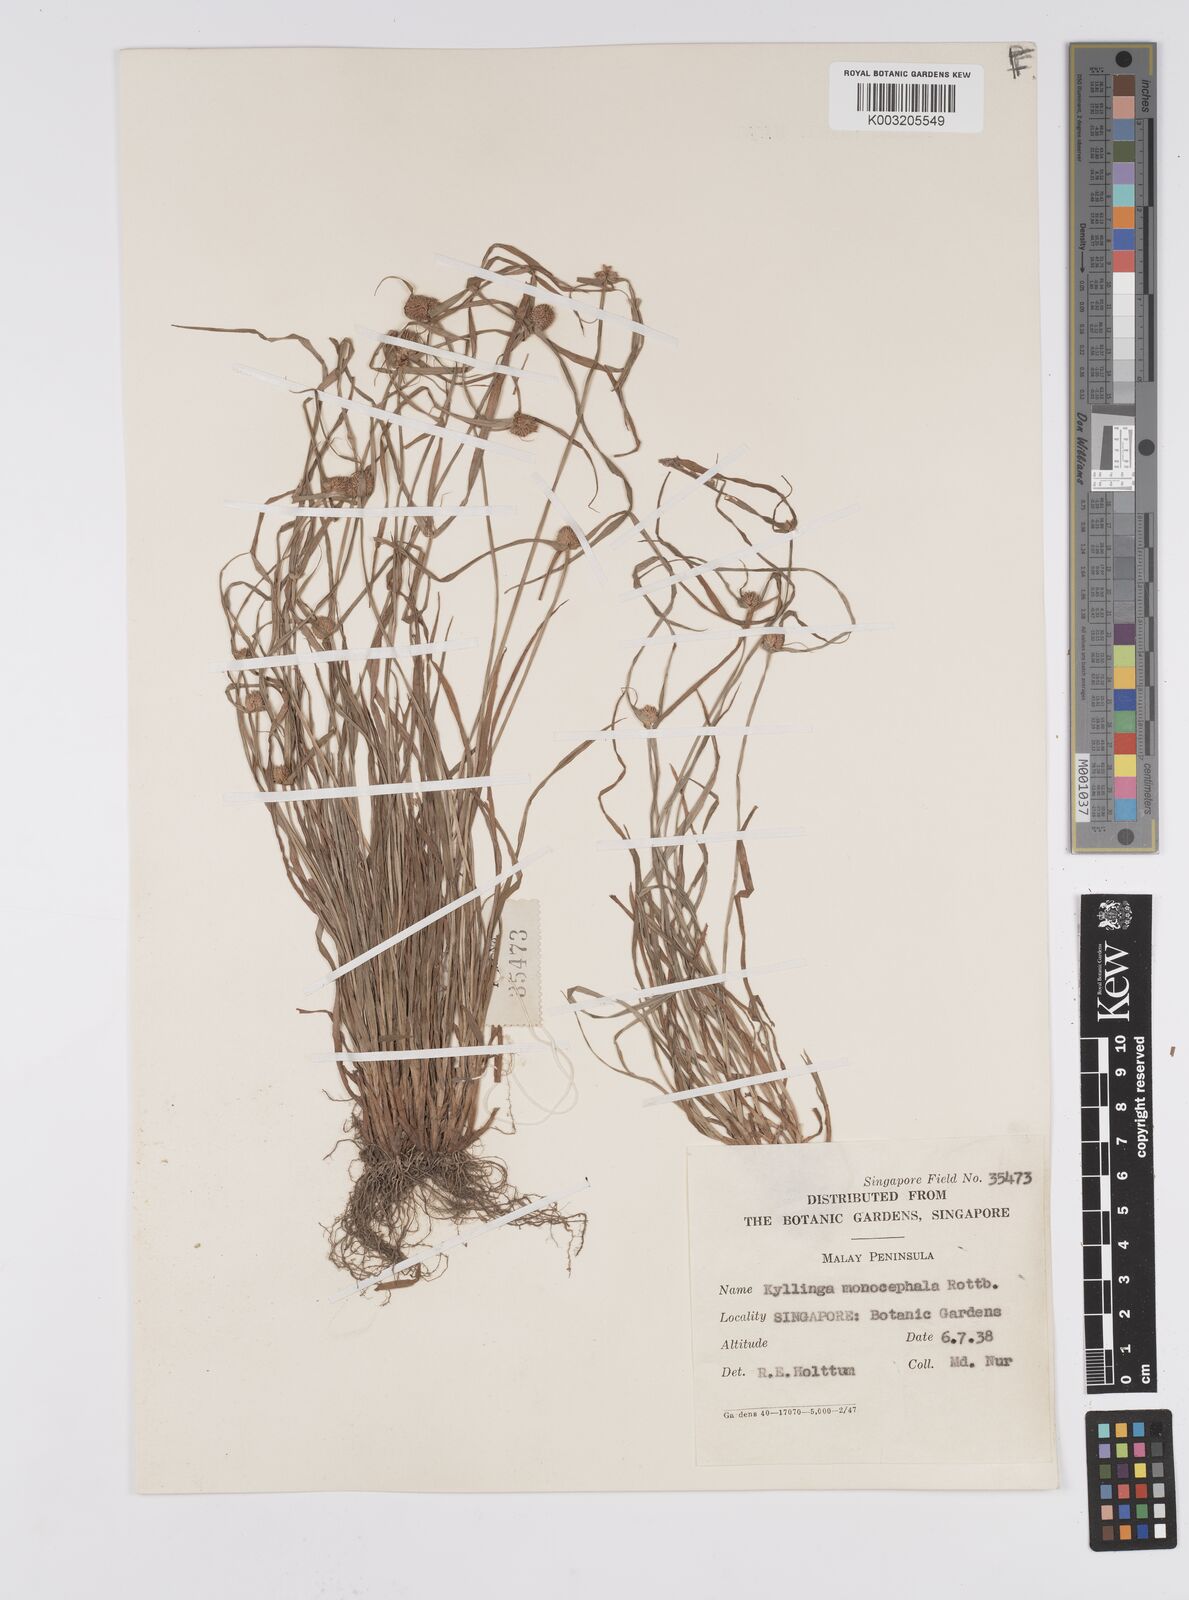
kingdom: Plantae
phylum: Tracheophyta
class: Liliopsida
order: Poales
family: Cyperaceae
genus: Cyperus
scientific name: Cyperus nemoralis
